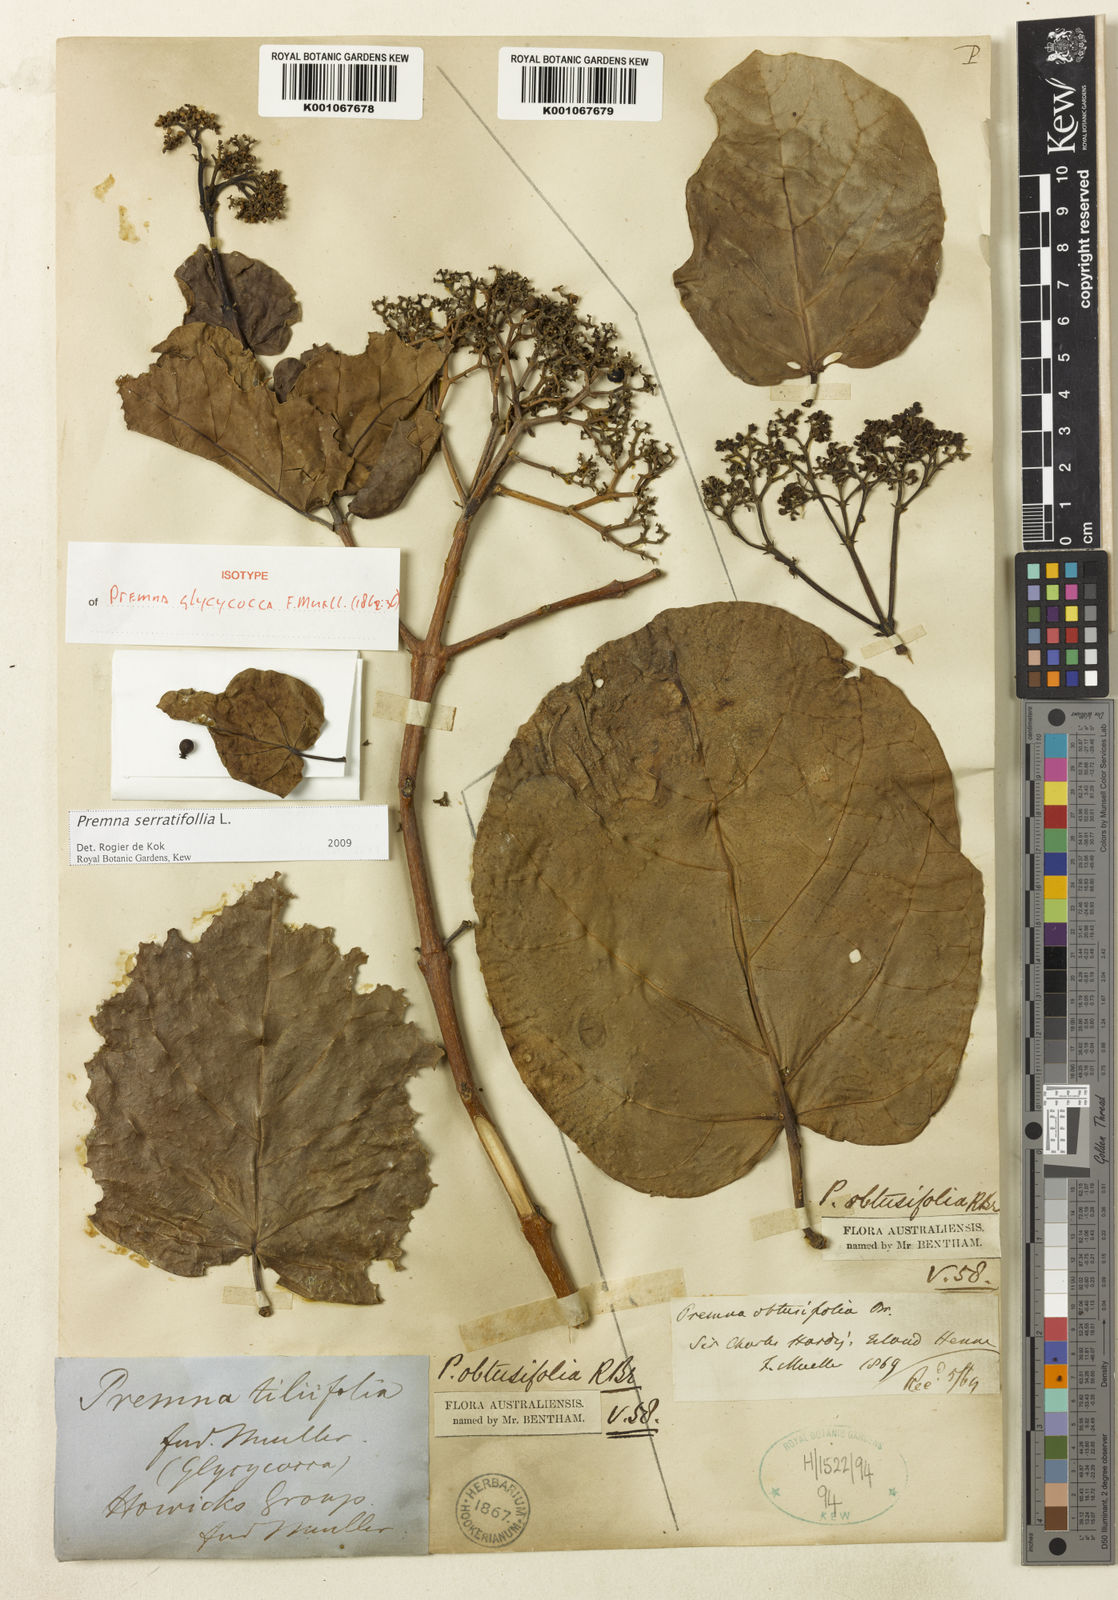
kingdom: Plantae
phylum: Tracheophyta
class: Magnoliopsida
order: Lamiales
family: Lamiaceae
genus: Premna
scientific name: Premna serratifolia
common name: Bastard guelder
